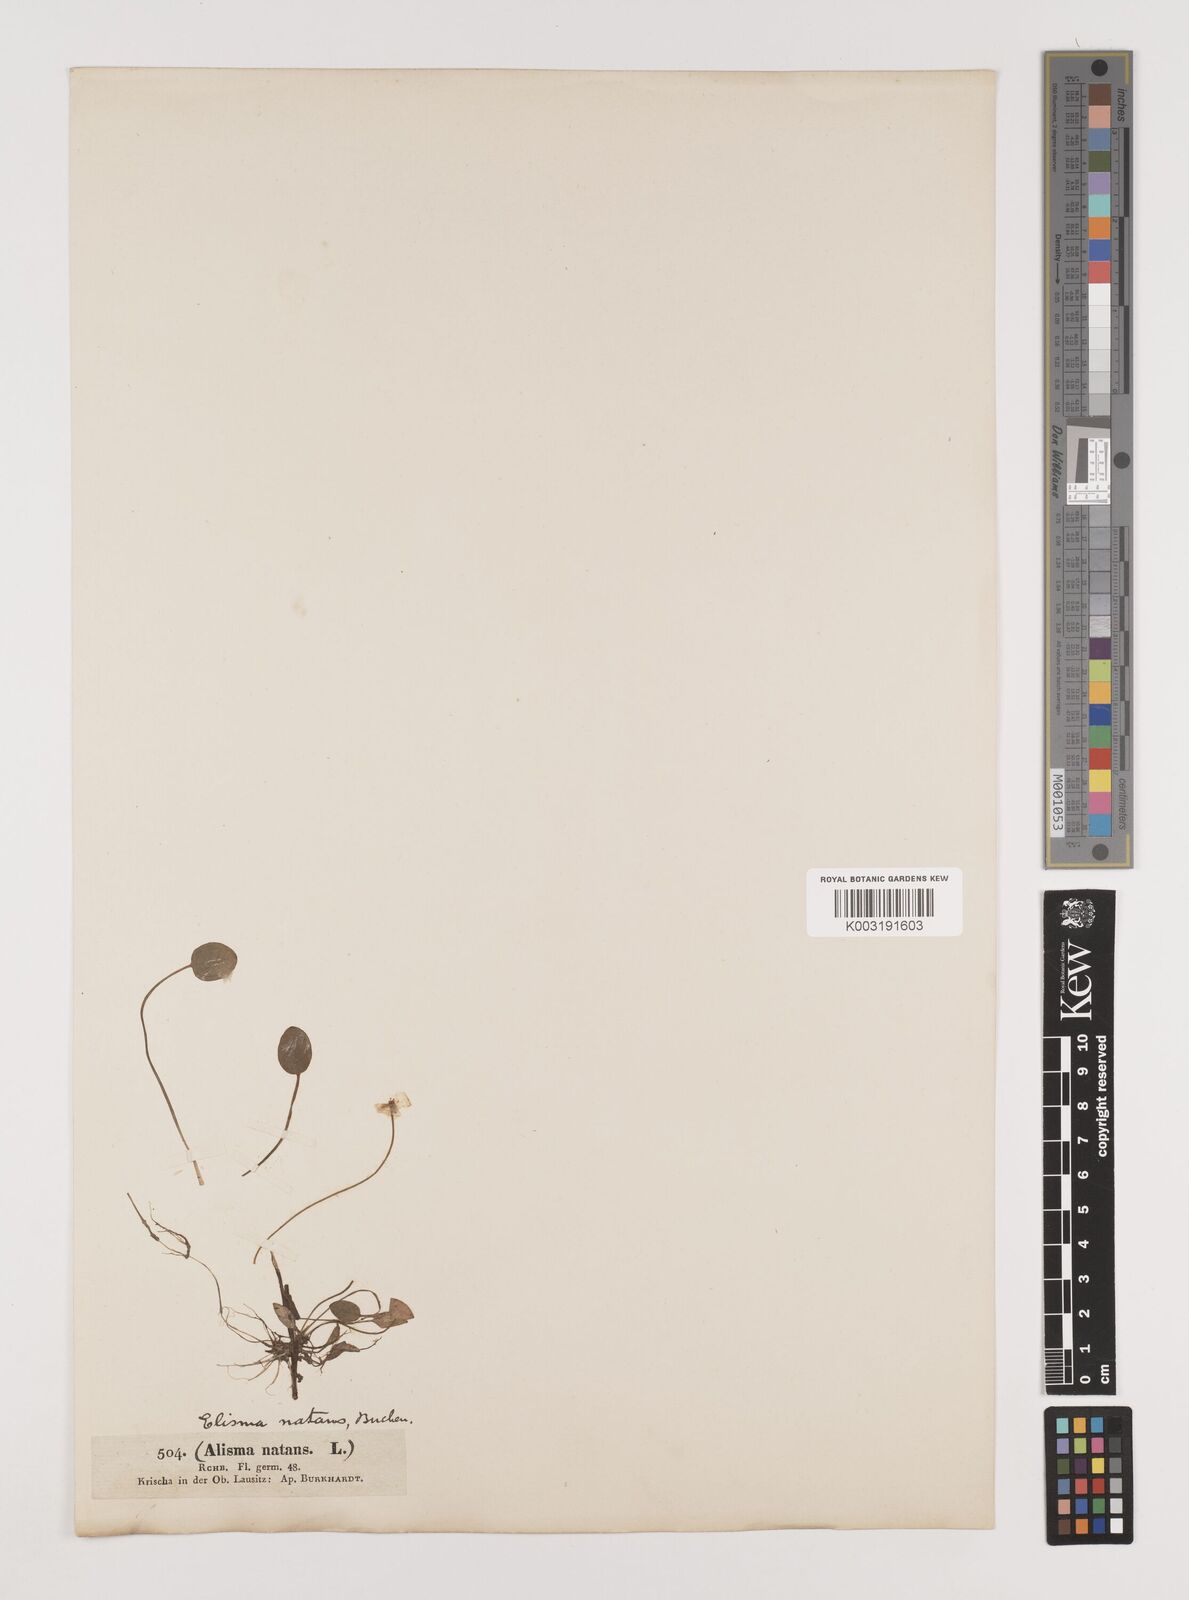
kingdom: Plantae
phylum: Tracheophyta
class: Liliopsida
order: Alismatales
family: Alismataceae
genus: Luronium
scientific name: Luronium natans
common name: Floating water-plantain
